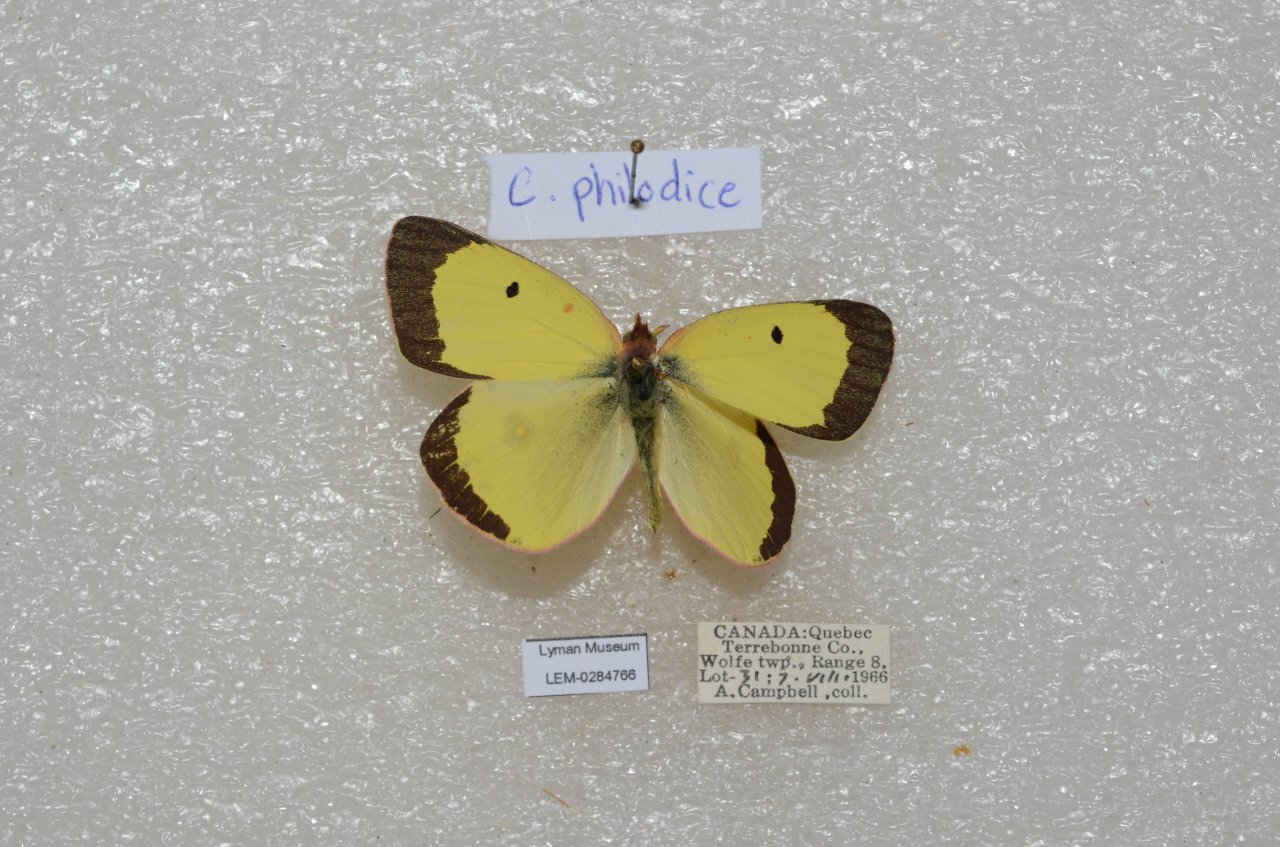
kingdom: Animalia
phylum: Arthropoda
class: Insecta
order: Lepidoptera
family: Pieridae
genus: Colias
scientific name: Colias philodice
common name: Clouded Sulphur
